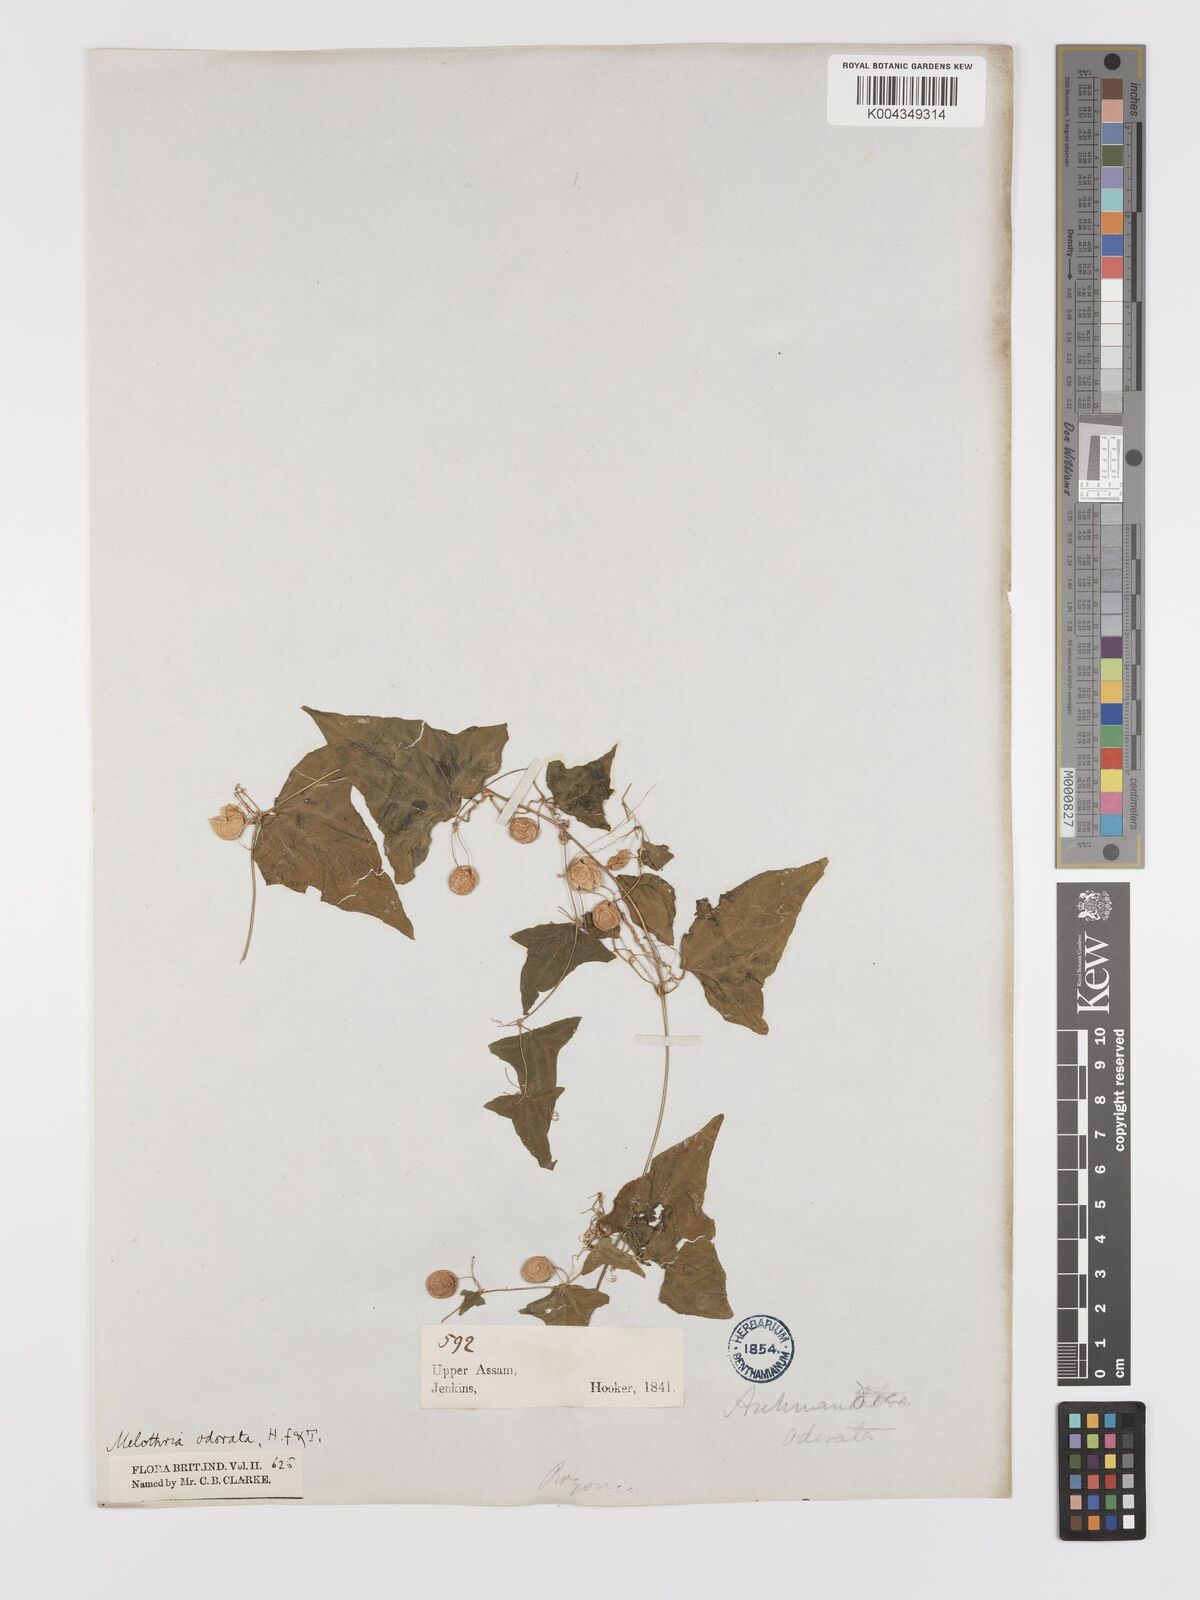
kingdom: Plantae
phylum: Tracheophyta
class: Magnoliopsida
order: Cucurbitales
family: Cucurbitaceae
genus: Zehneria
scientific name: Zehneria odorata
